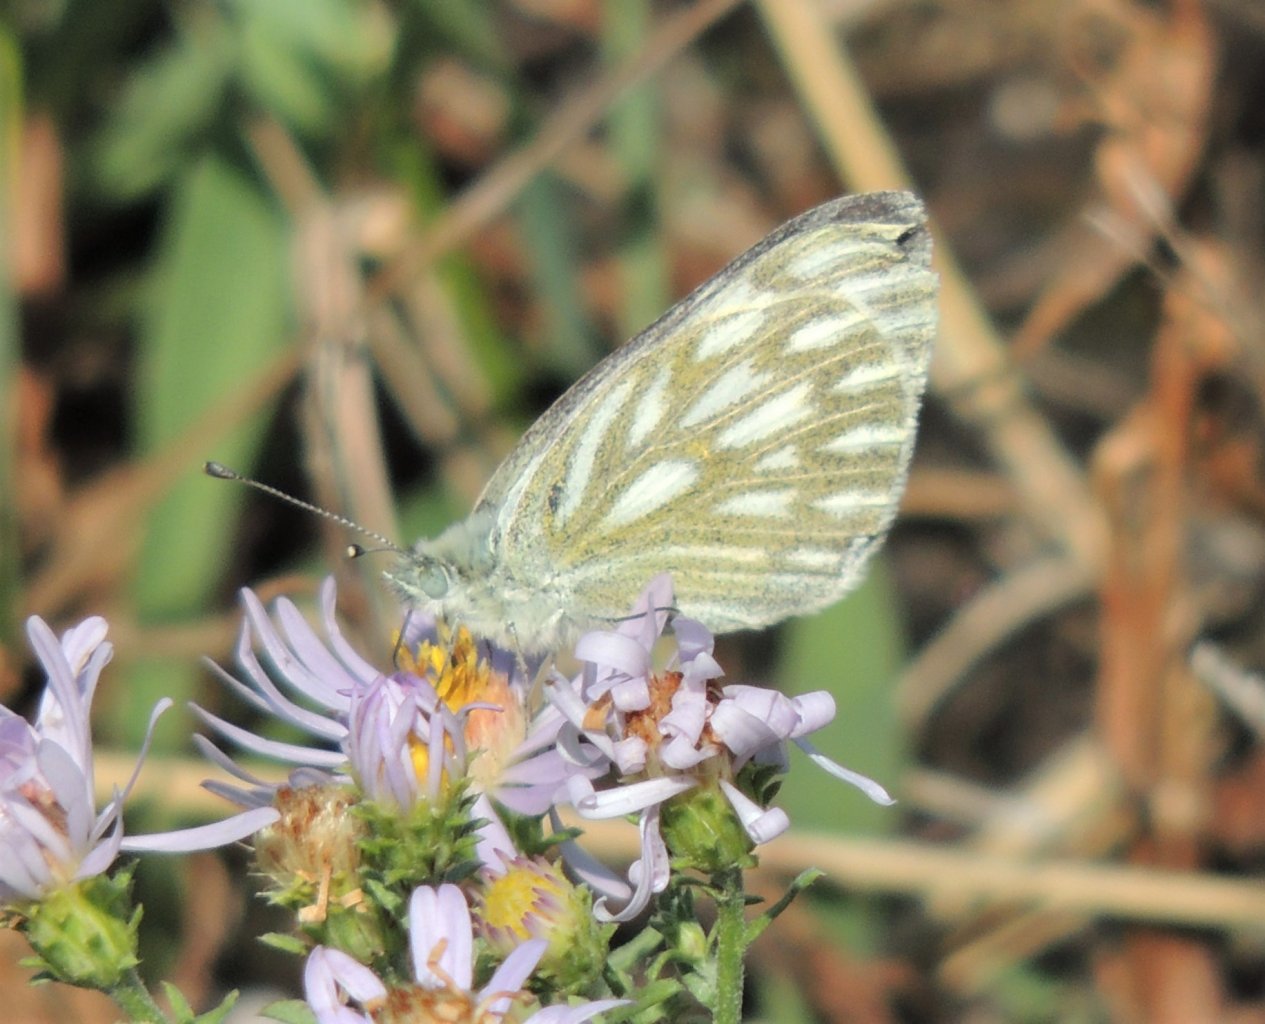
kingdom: Animalia
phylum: Arthropoda
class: Insecta
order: Lepidoptera
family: Pieridae
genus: Pontia
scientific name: Pontia protodice
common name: Checkered White
